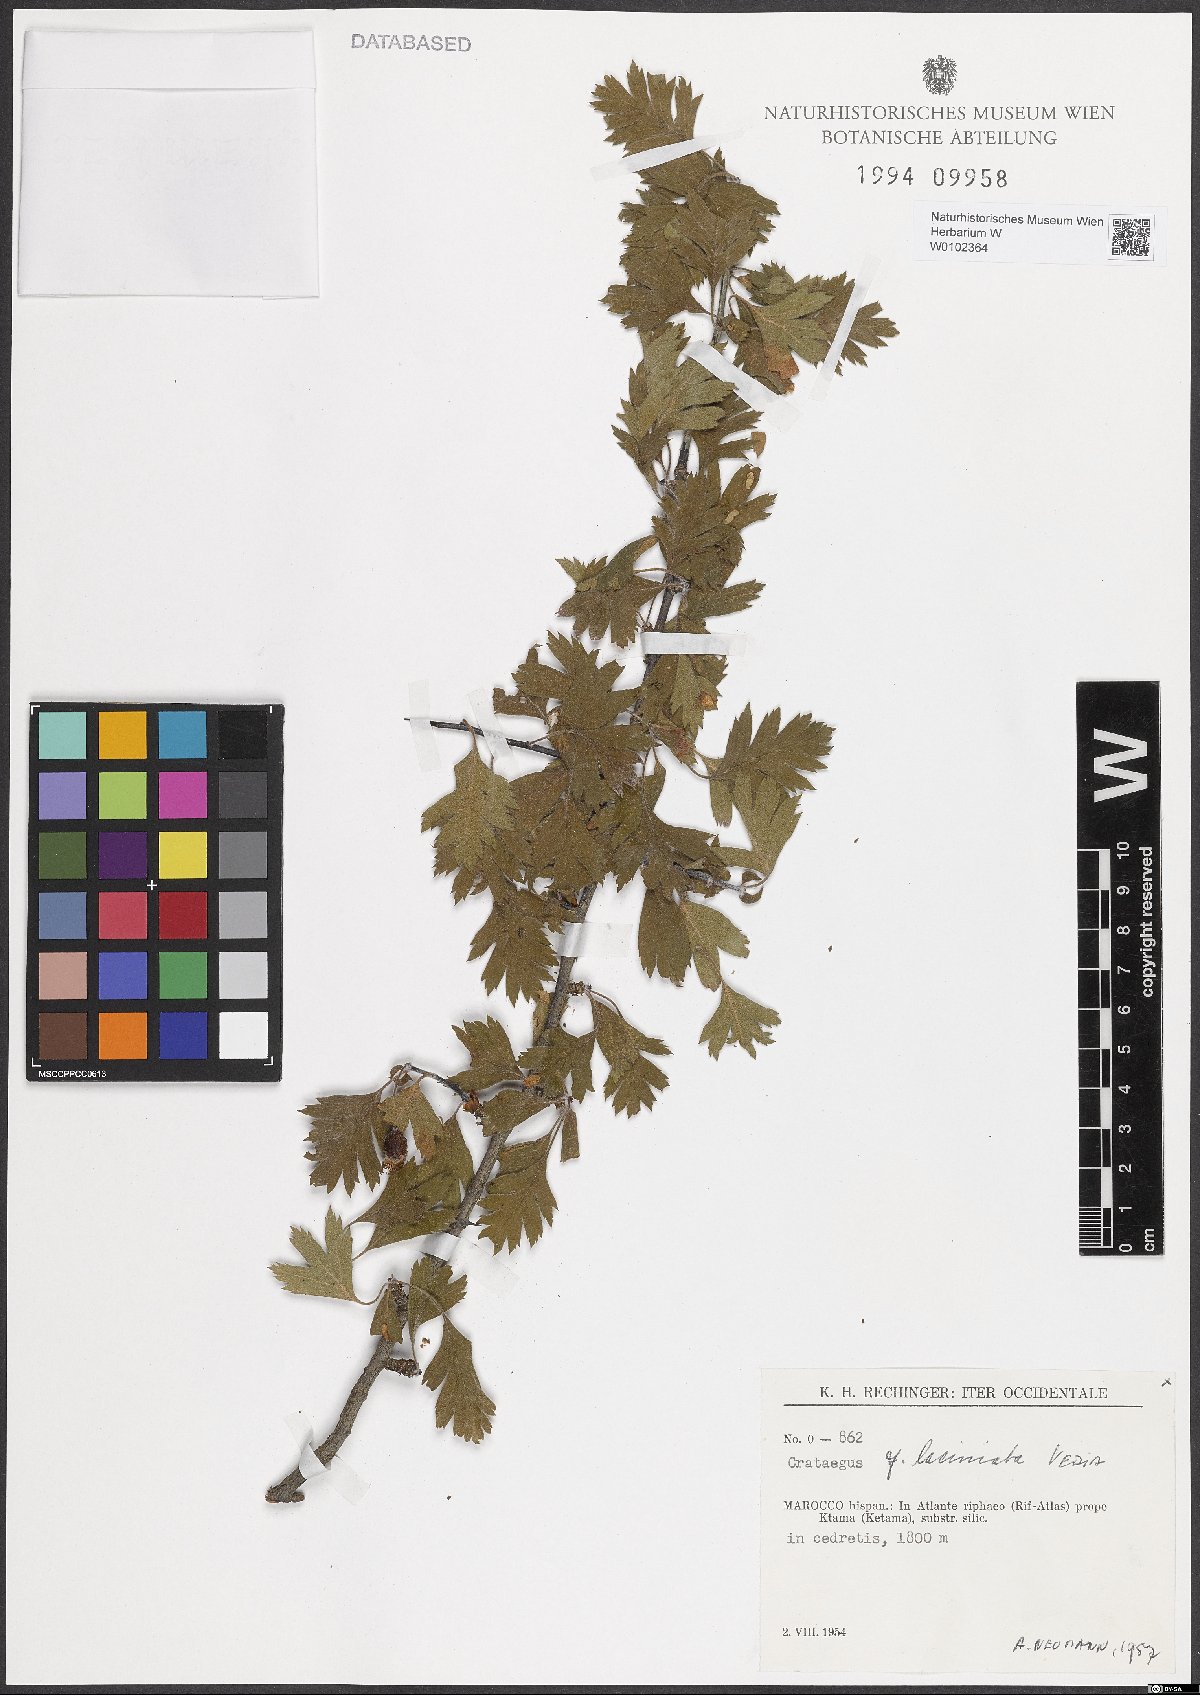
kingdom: Plantae
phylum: Tracheophyta
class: Magnoliopsida
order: Rosales
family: Rosaceae
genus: Crataegus
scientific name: Crataegus laciniata
